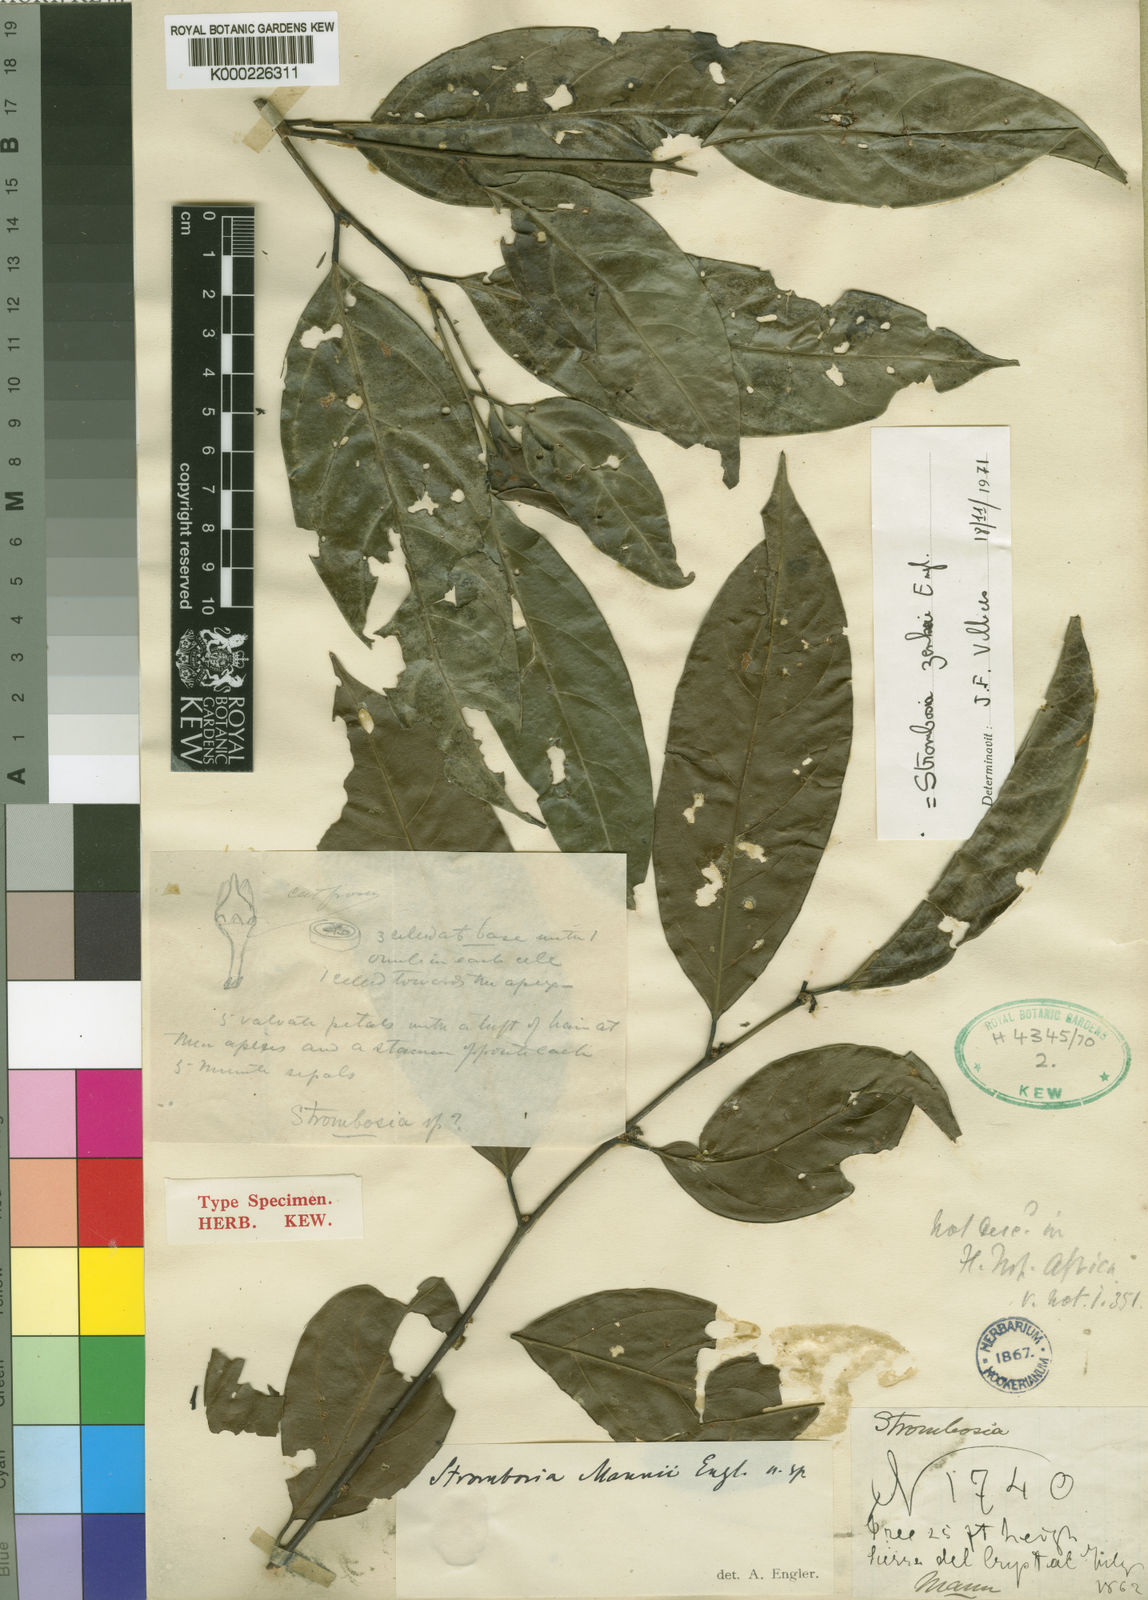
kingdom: Plantae
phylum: Tracheophyta
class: Magnoliopsida
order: Santalales
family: Strombosiaceae
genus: Strombosia
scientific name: Strombosia zenkeri
